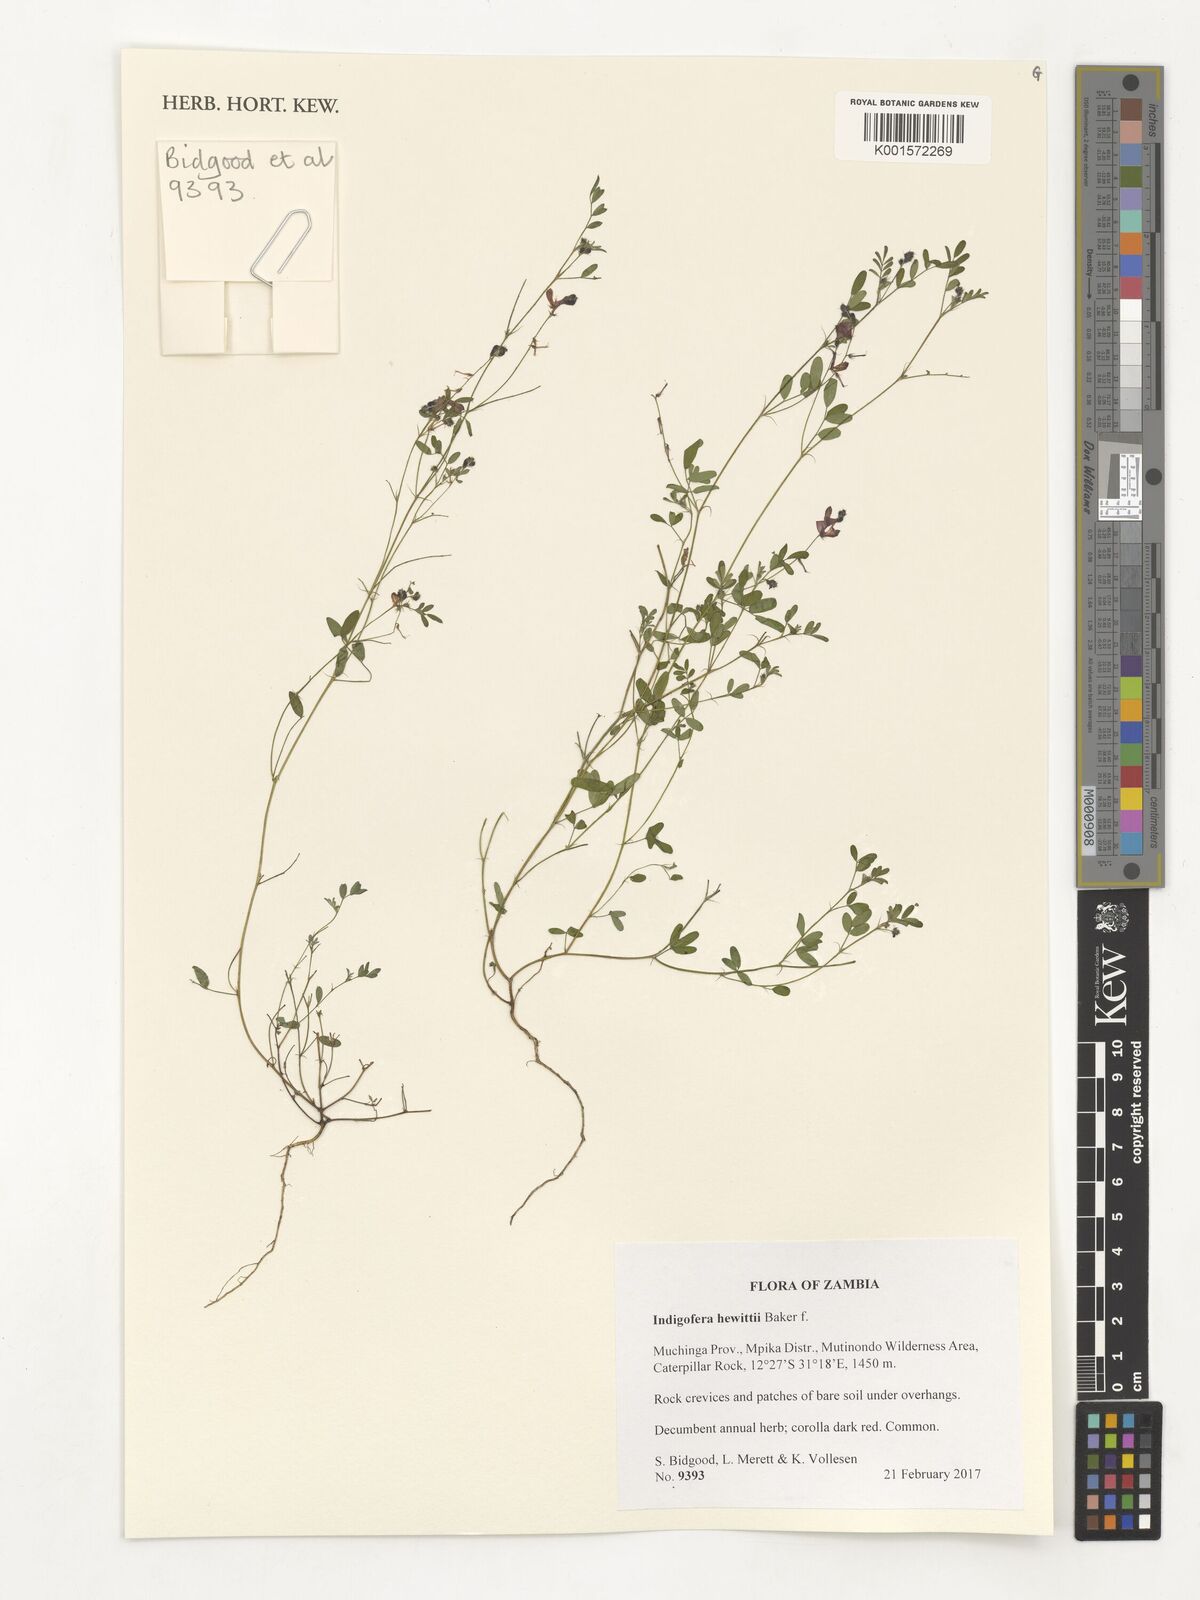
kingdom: Plantae
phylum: Tracheophyta
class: Magnoliopsida
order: Fabales
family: Fabaceae
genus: Indigofera
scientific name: Indigofera hewittii
